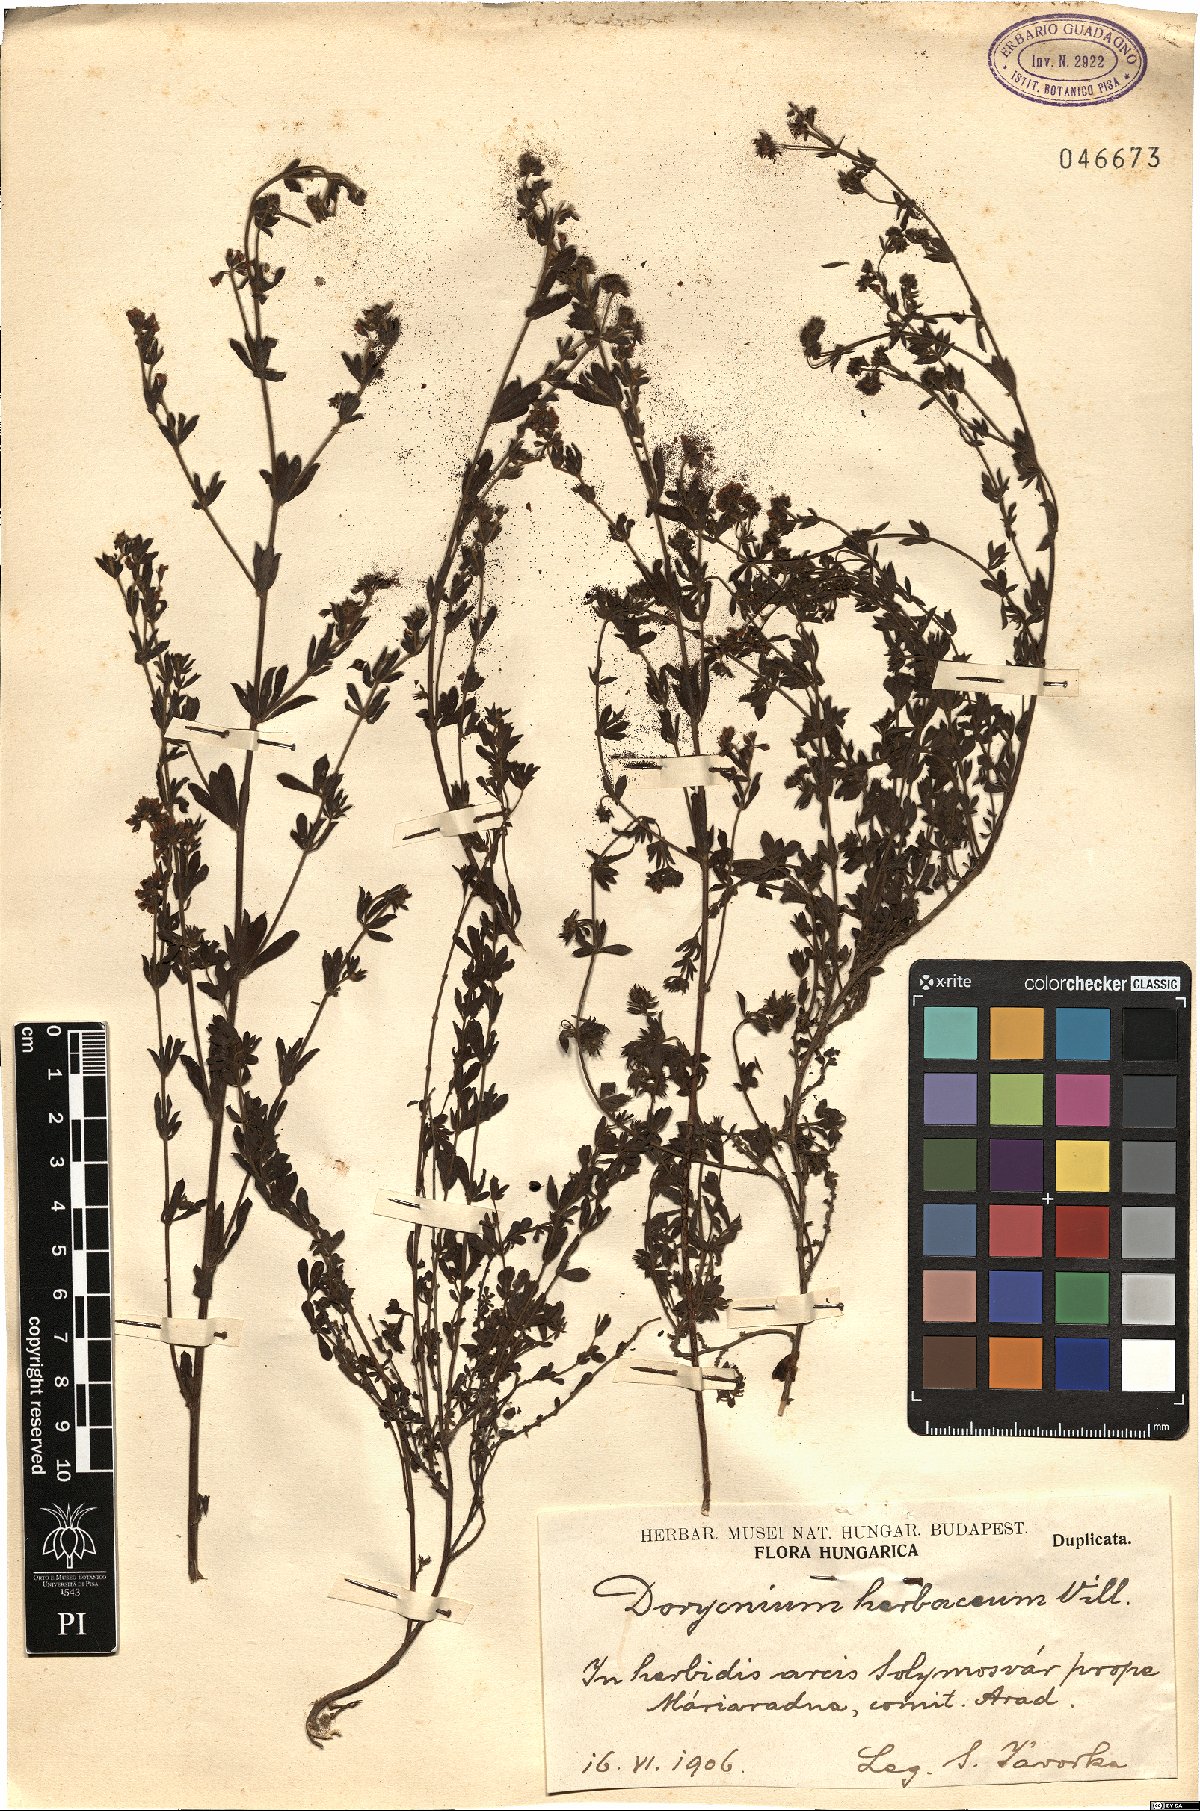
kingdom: Plantae
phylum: Tracheophyta
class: Magnoliopsida
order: Fabales
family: Fabaceae
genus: Lotus
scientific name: Lotus herbaceus
